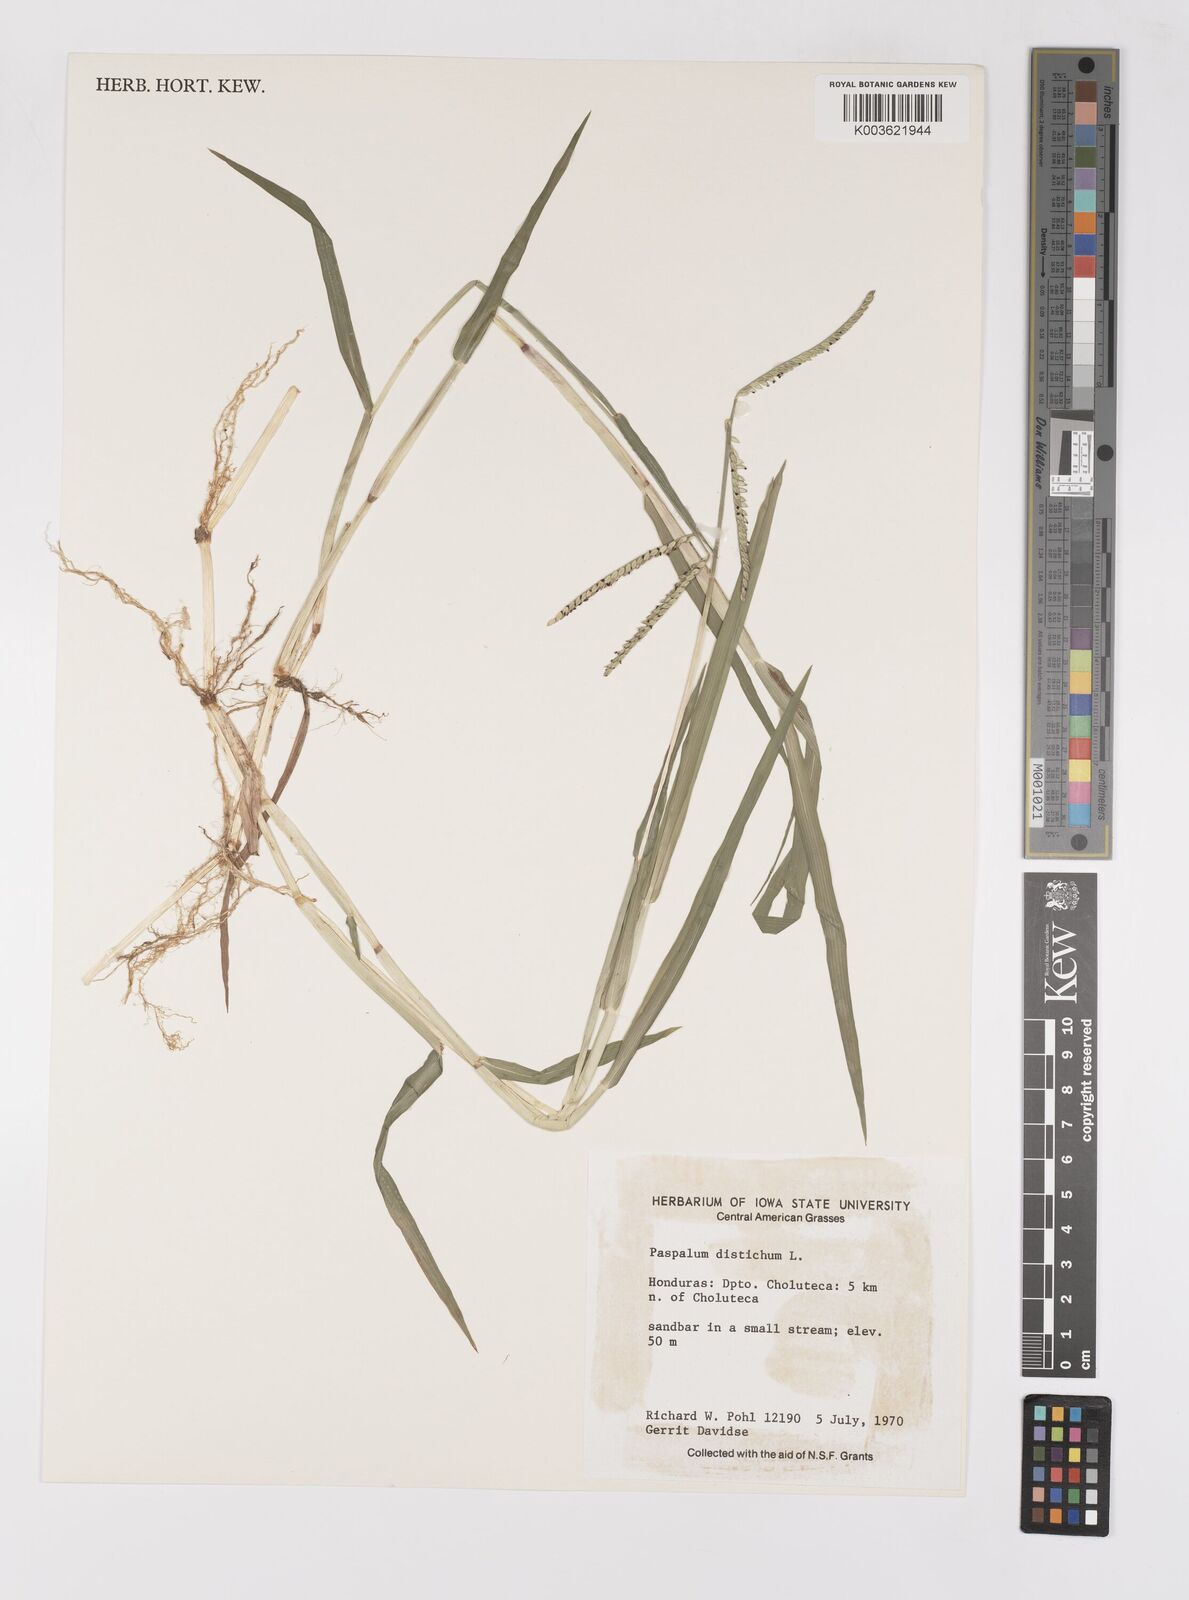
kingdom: Plantae
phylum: Tracheophyta
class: Liliopsida
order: Poales
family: Poaceae
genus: Paspalum
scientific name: Paspalum distichum
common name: Knotgrass
